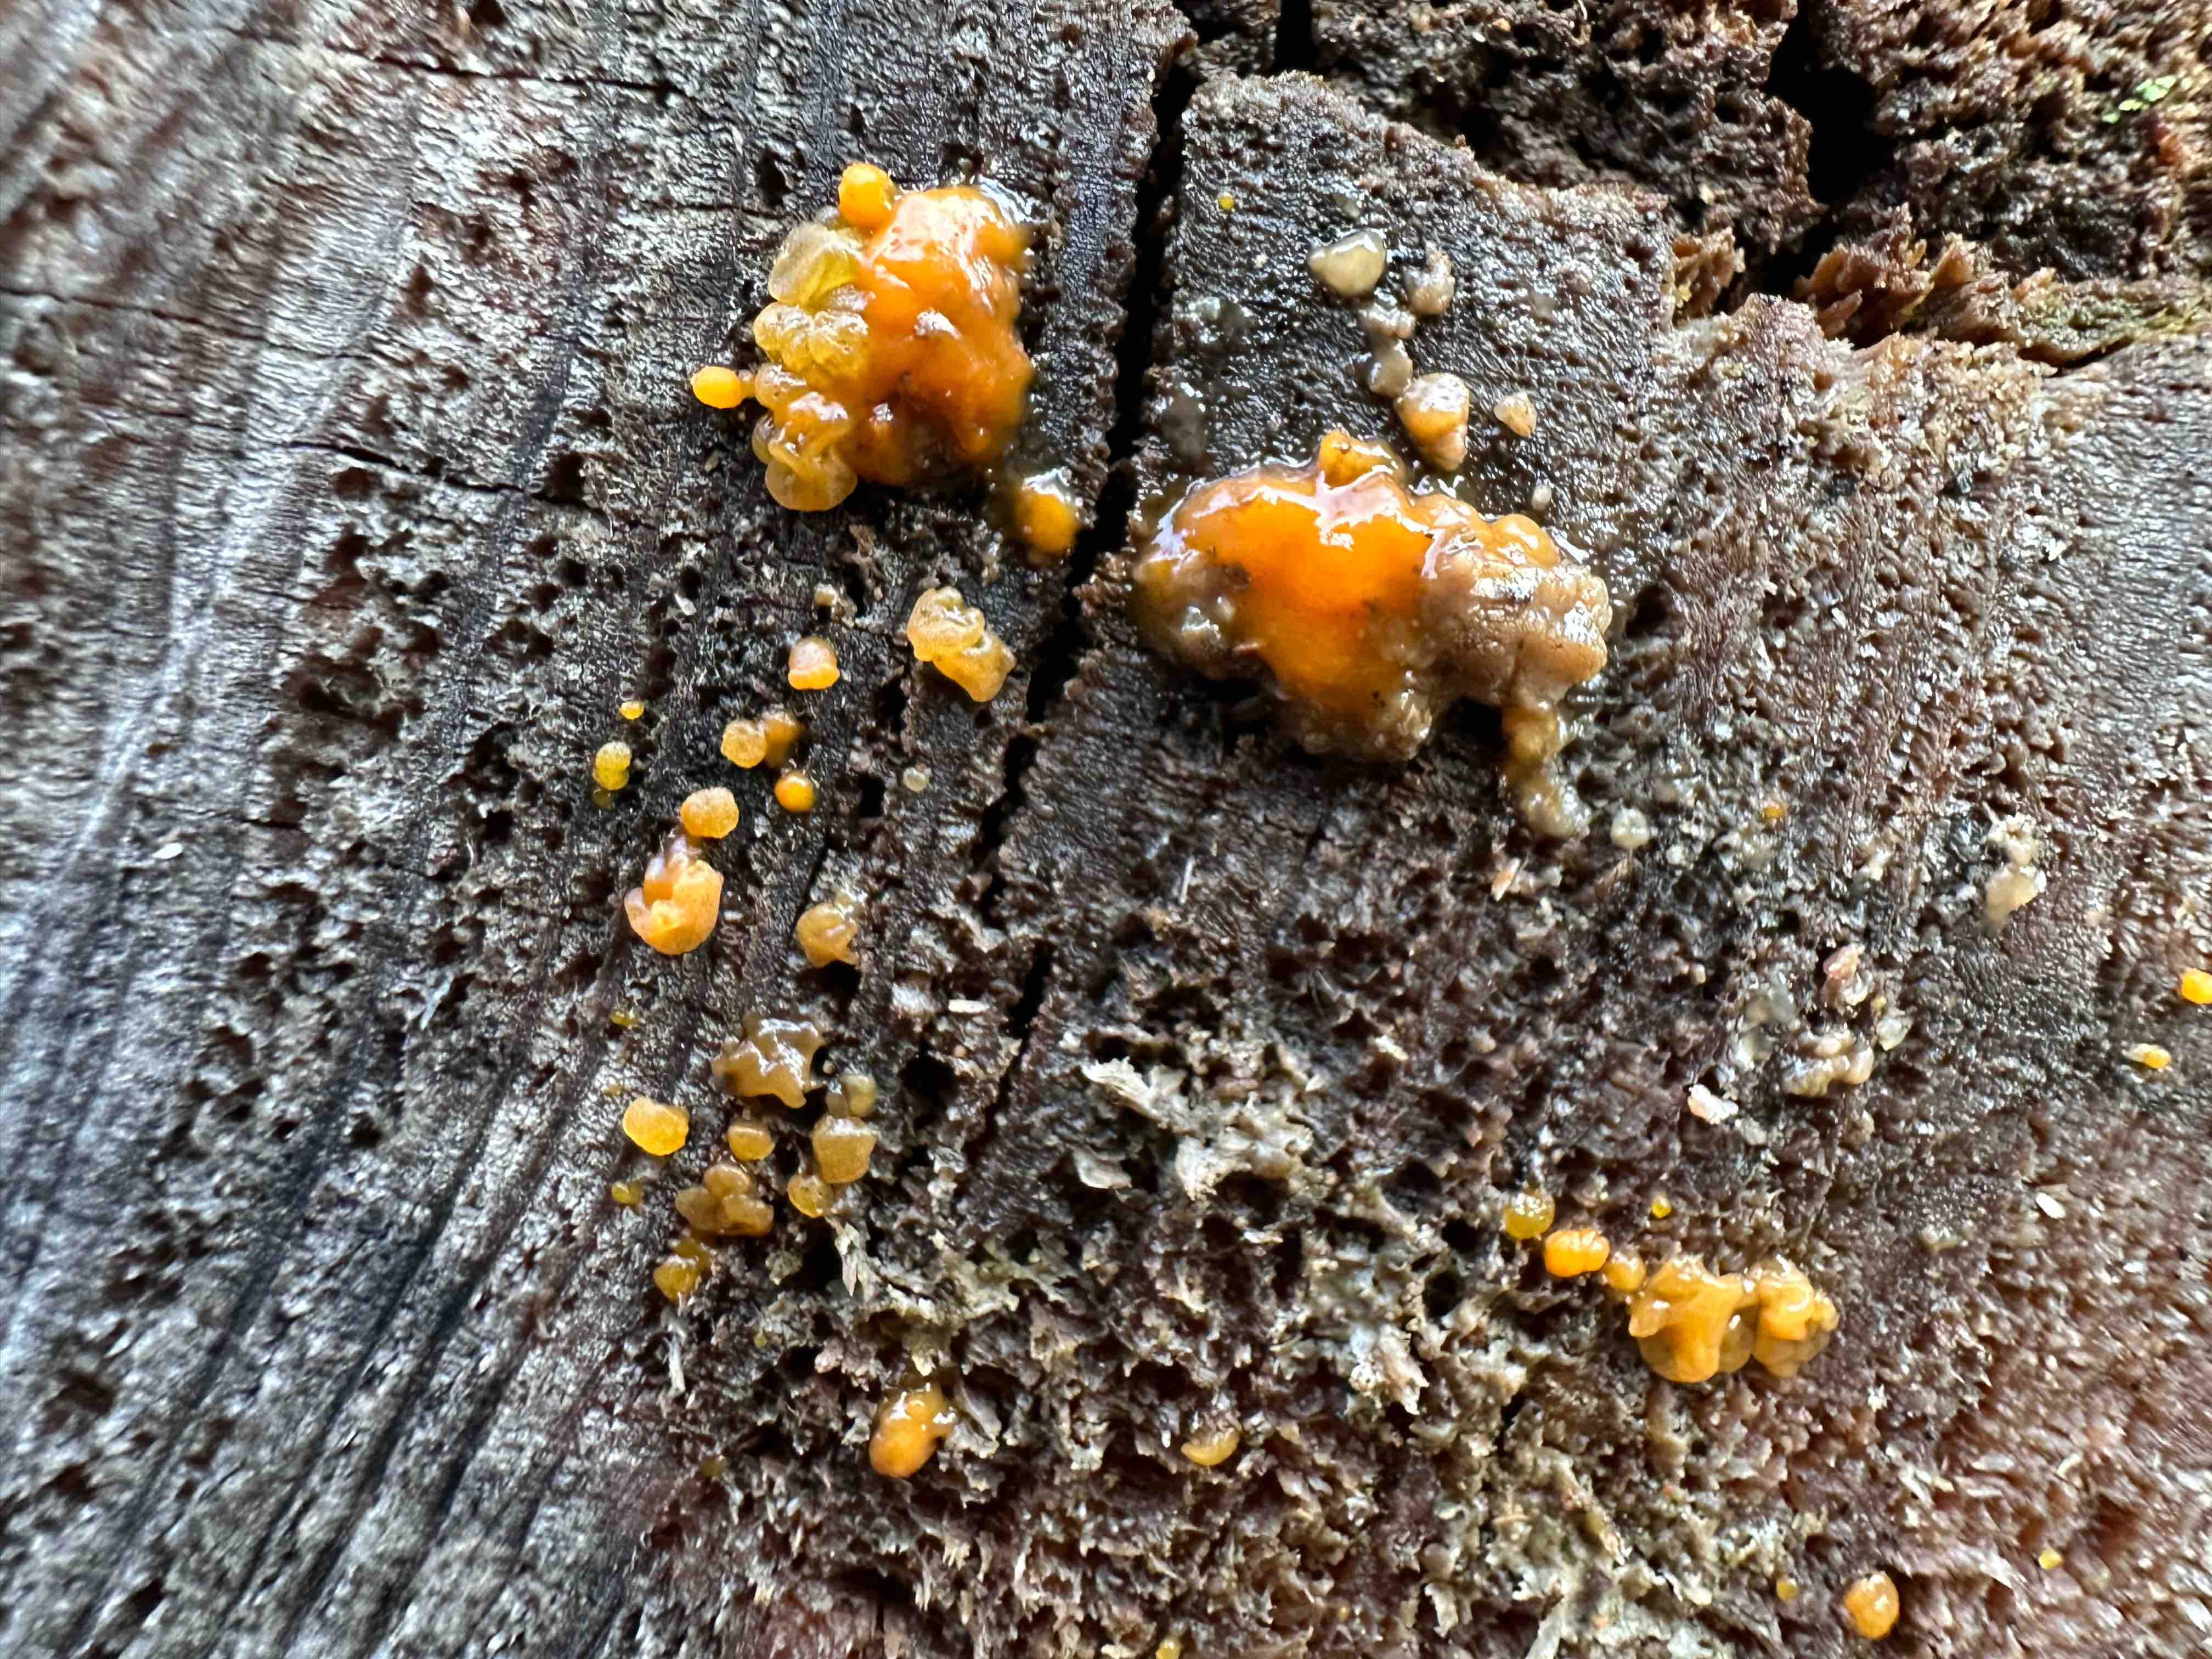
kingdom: Fungi
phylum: Basidiomycota
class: Dacrymycetes
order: Dacrymycetales
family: Dacrymycetaceae
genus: Dacrymyces
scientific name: Dacrymyces stillatus
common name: almindelig tåresvamp
